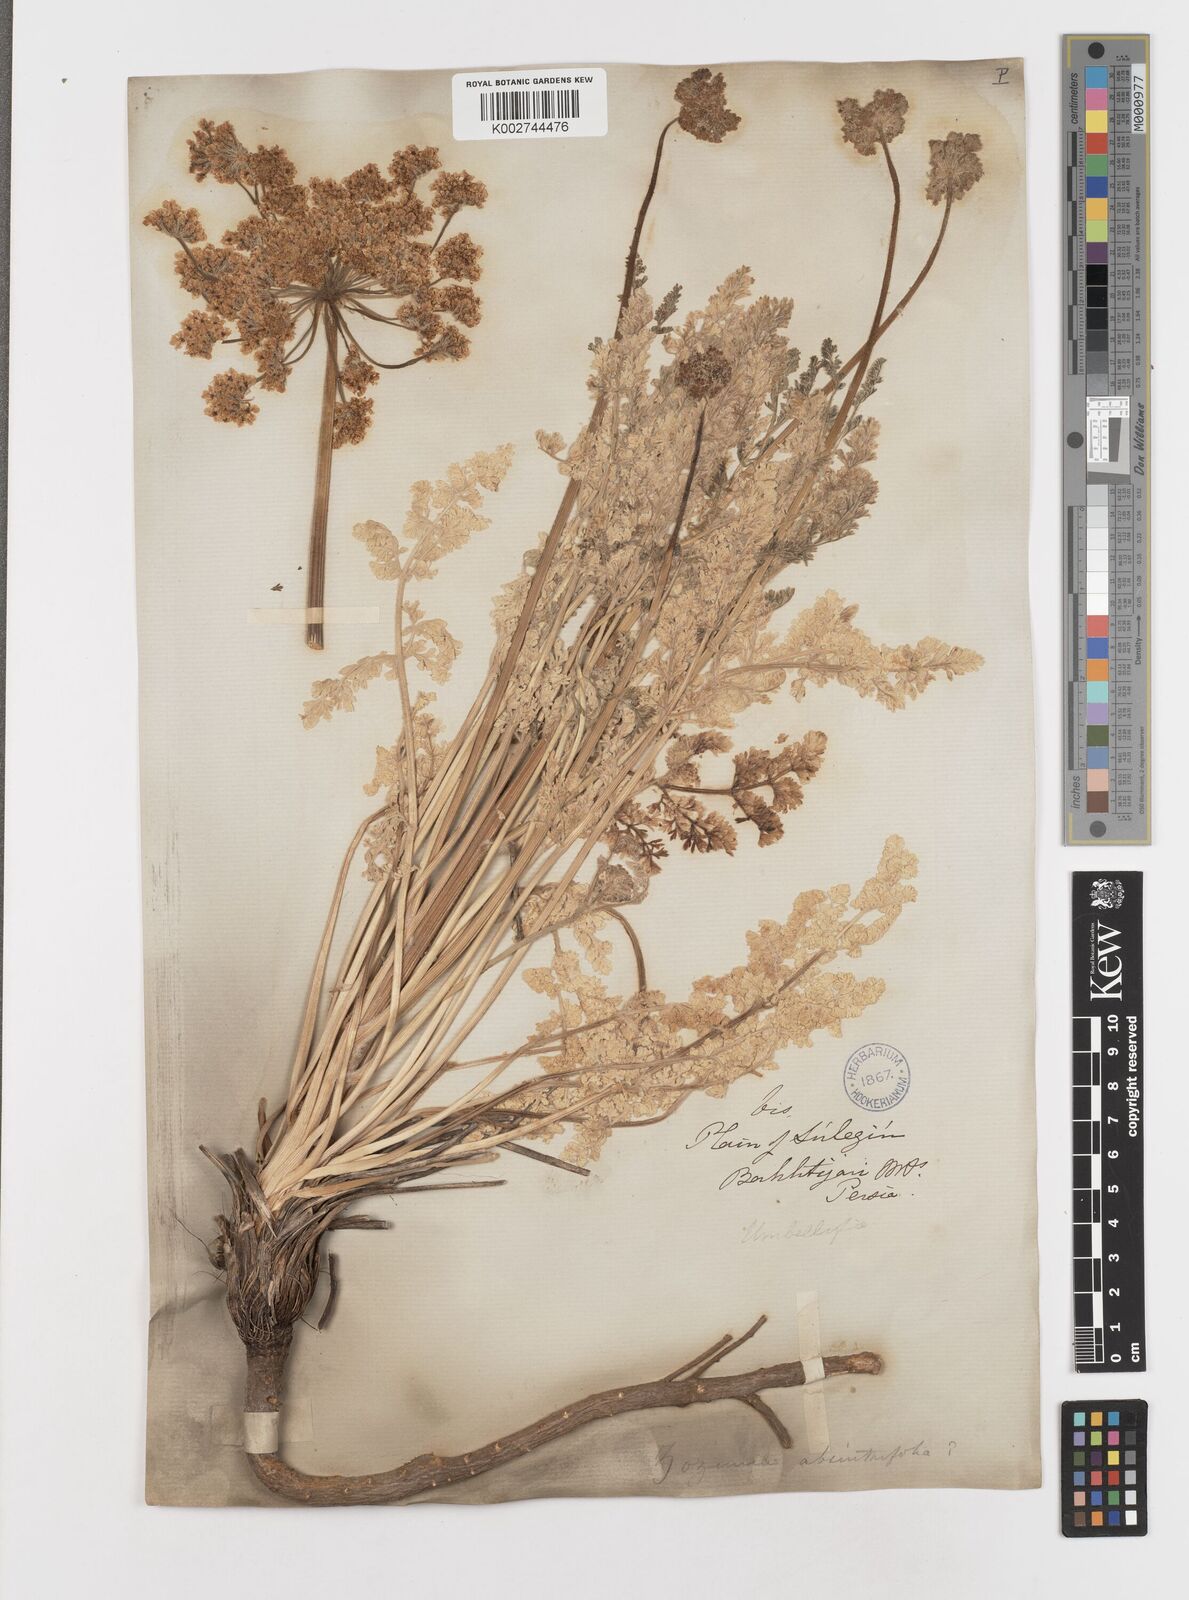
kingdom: Plantae
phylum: Tracheophyta
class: Magnoliopsida
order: Apiales
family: Apiaceae
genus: Zosima
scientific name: Zosima absinthiifolia
